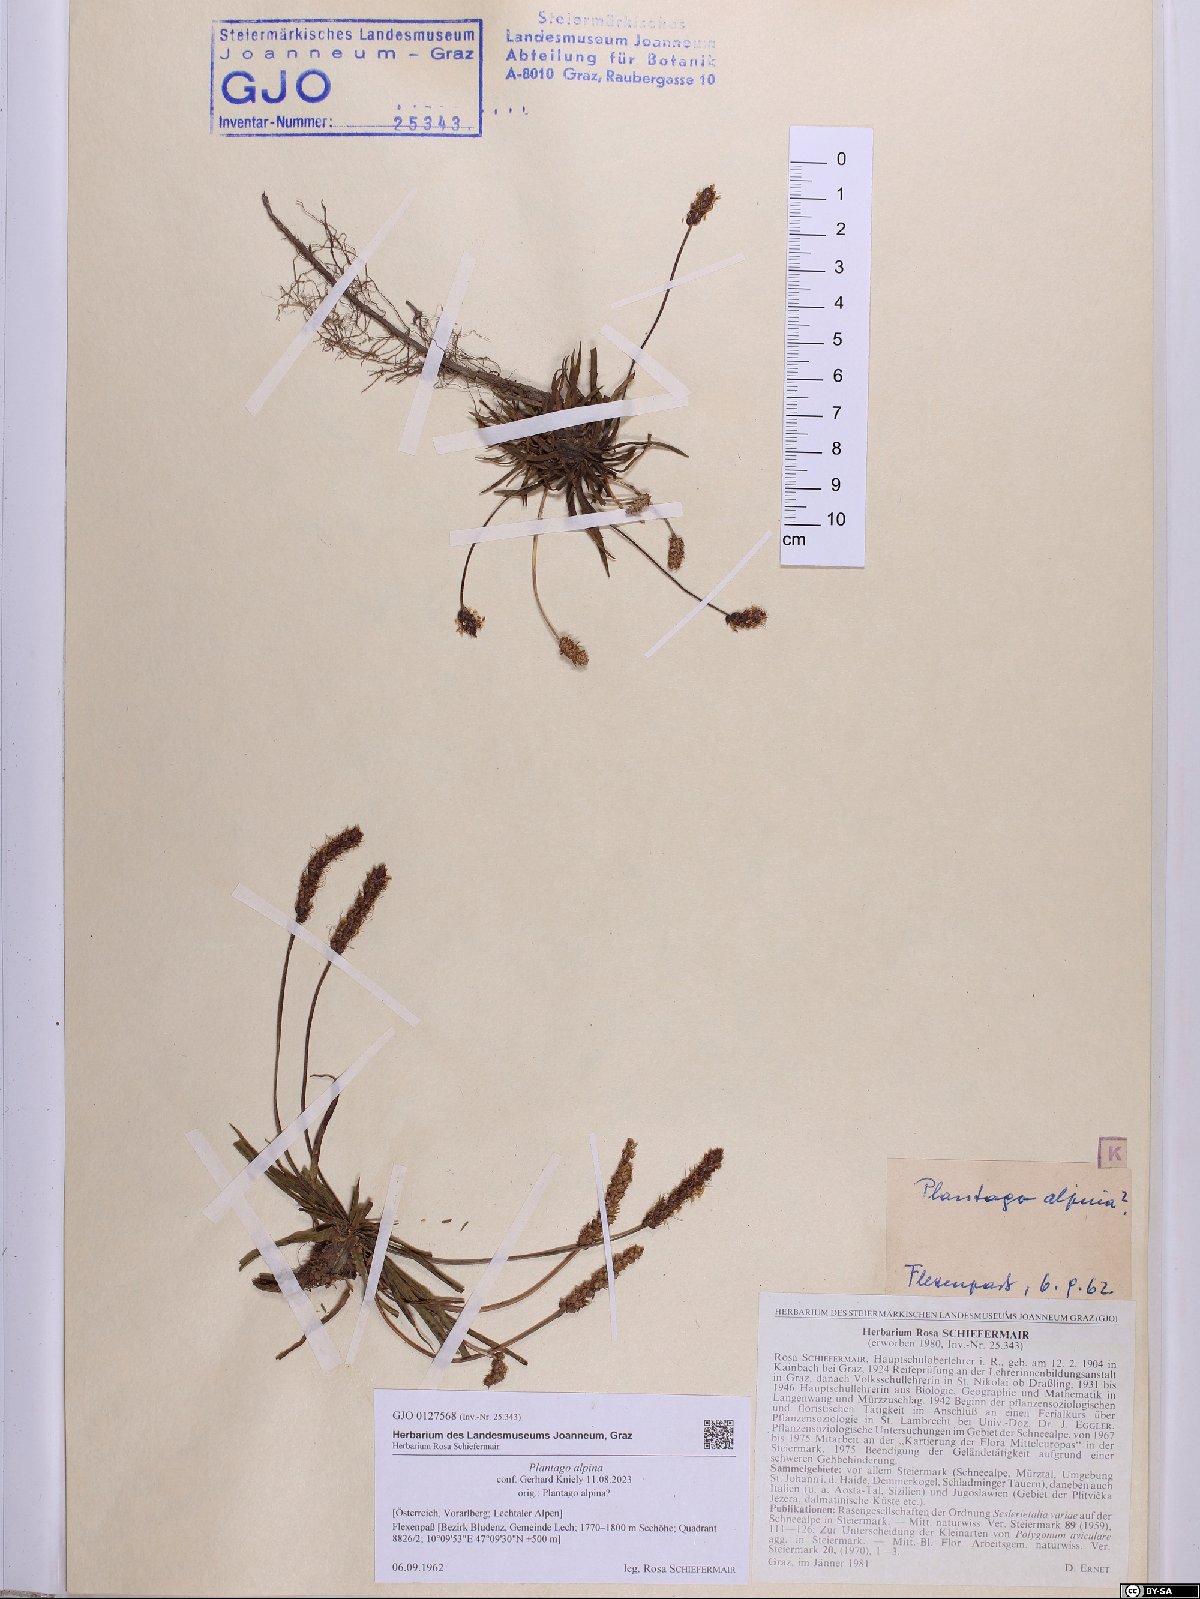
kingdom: Plantae
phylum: Tracheophyta
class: Magnoliopsida
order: Lamiales
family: Plantaginaceae
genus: Plantago
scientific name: Plantago alpina
